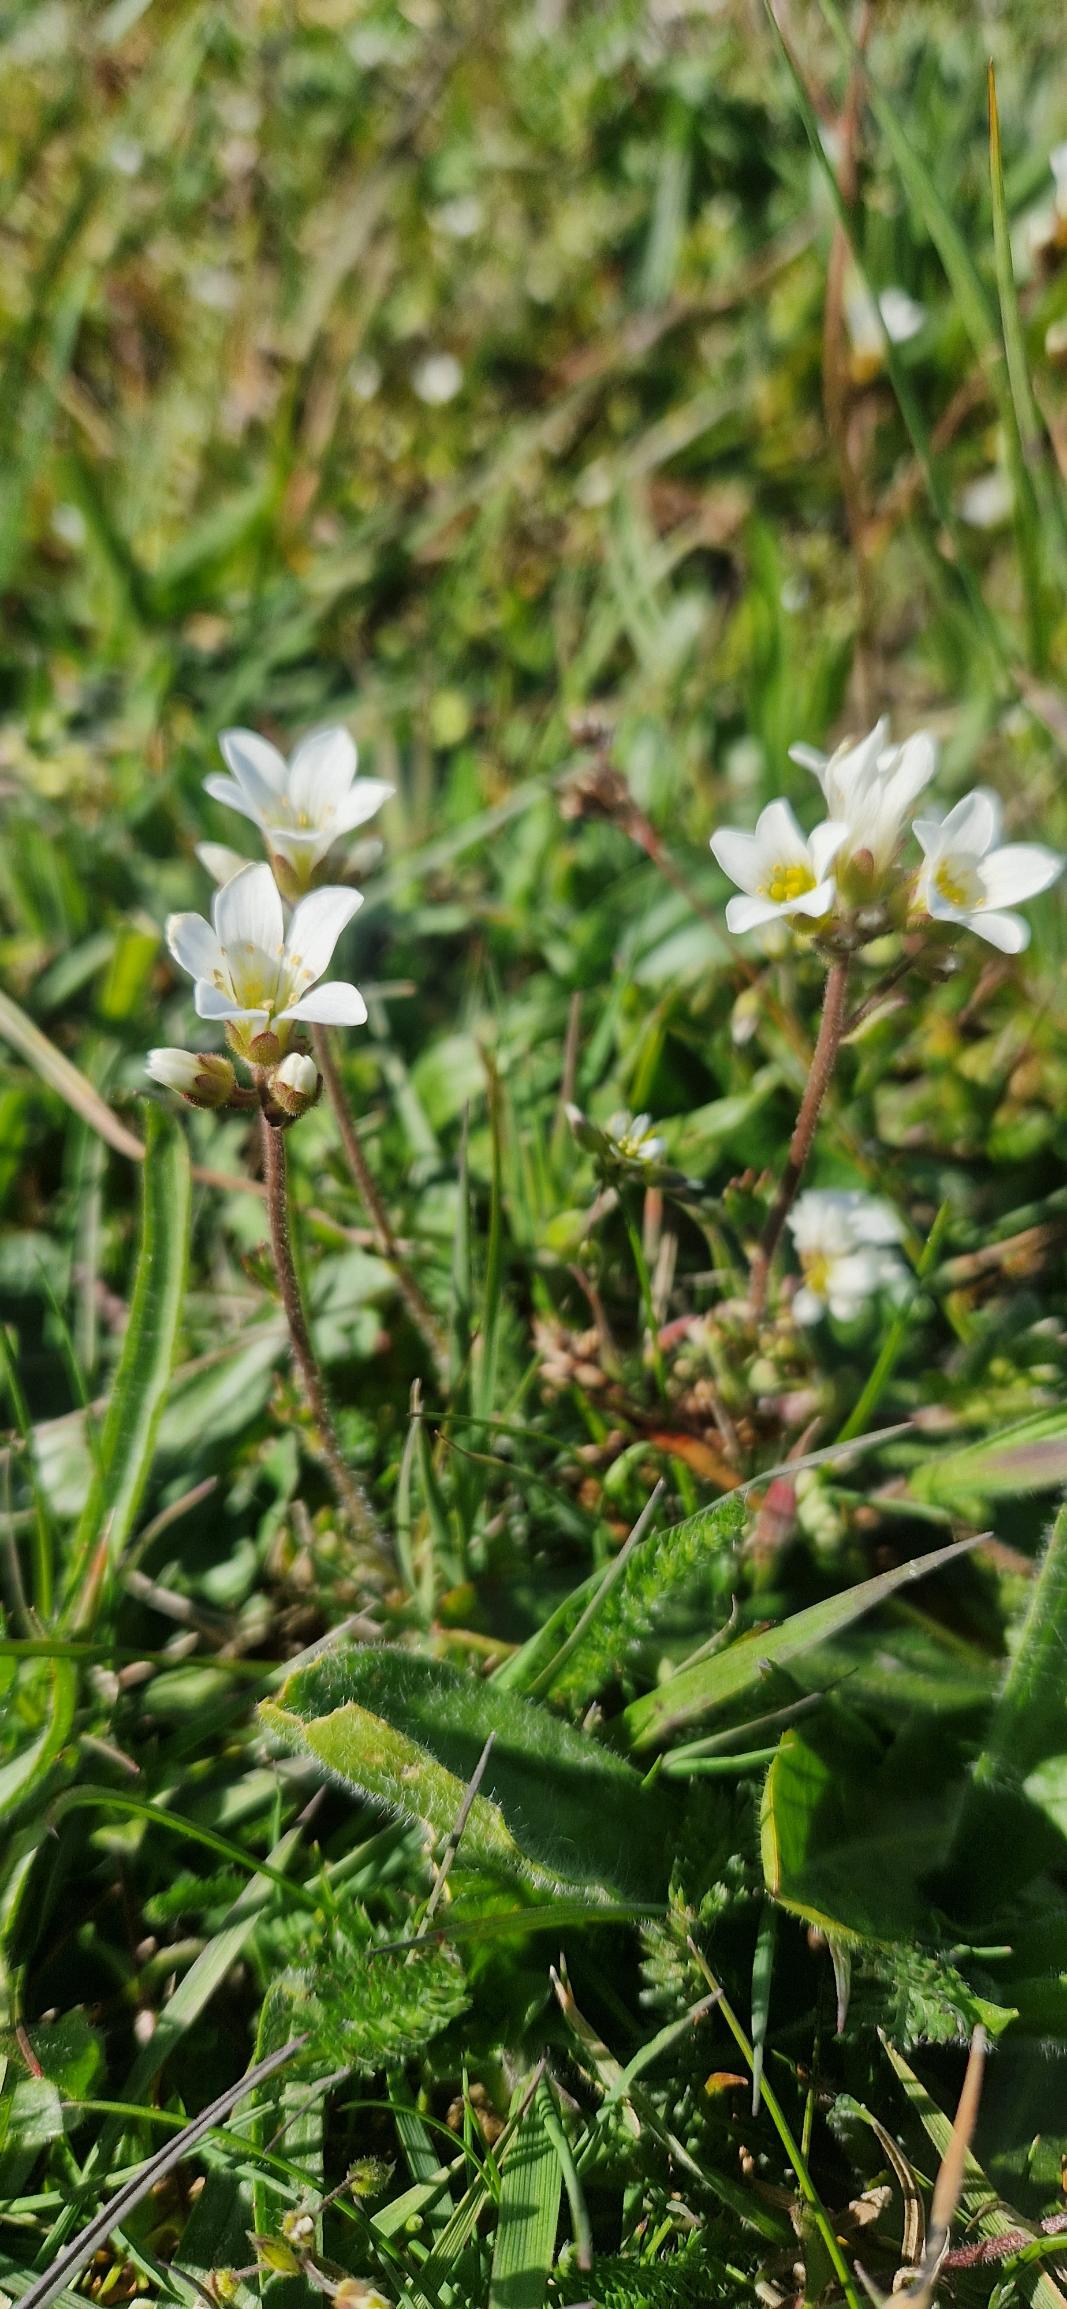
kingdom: Plantae
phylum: Tracheophyta
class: Magnoliopsida
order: Saxifragales
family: Saxifragaceae
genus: Saxifraga
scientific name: Saxifraga granulata
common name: Kornet stenbræk
